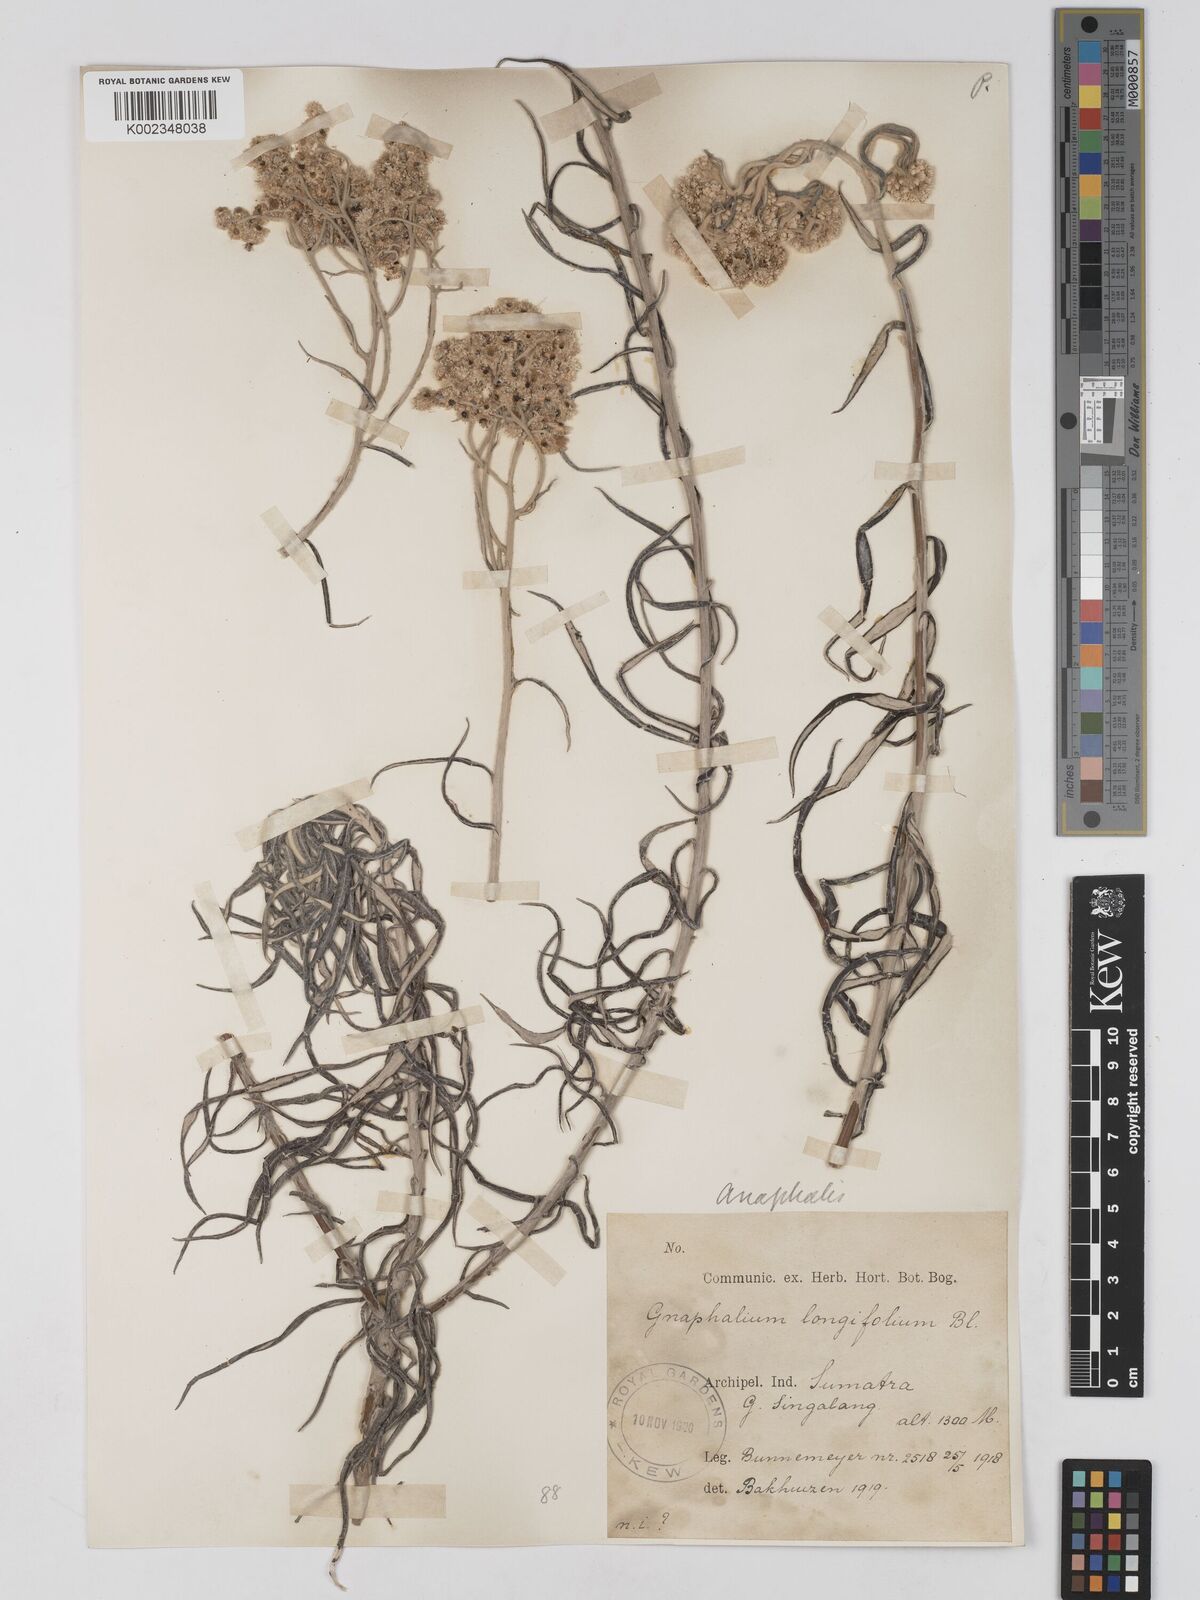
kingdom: Plantae
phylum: Tracheophyta
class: Magnoliopsida
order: Asterales
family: Asteraceae
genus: Anaphalis
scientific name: Anaphalis longifolia
